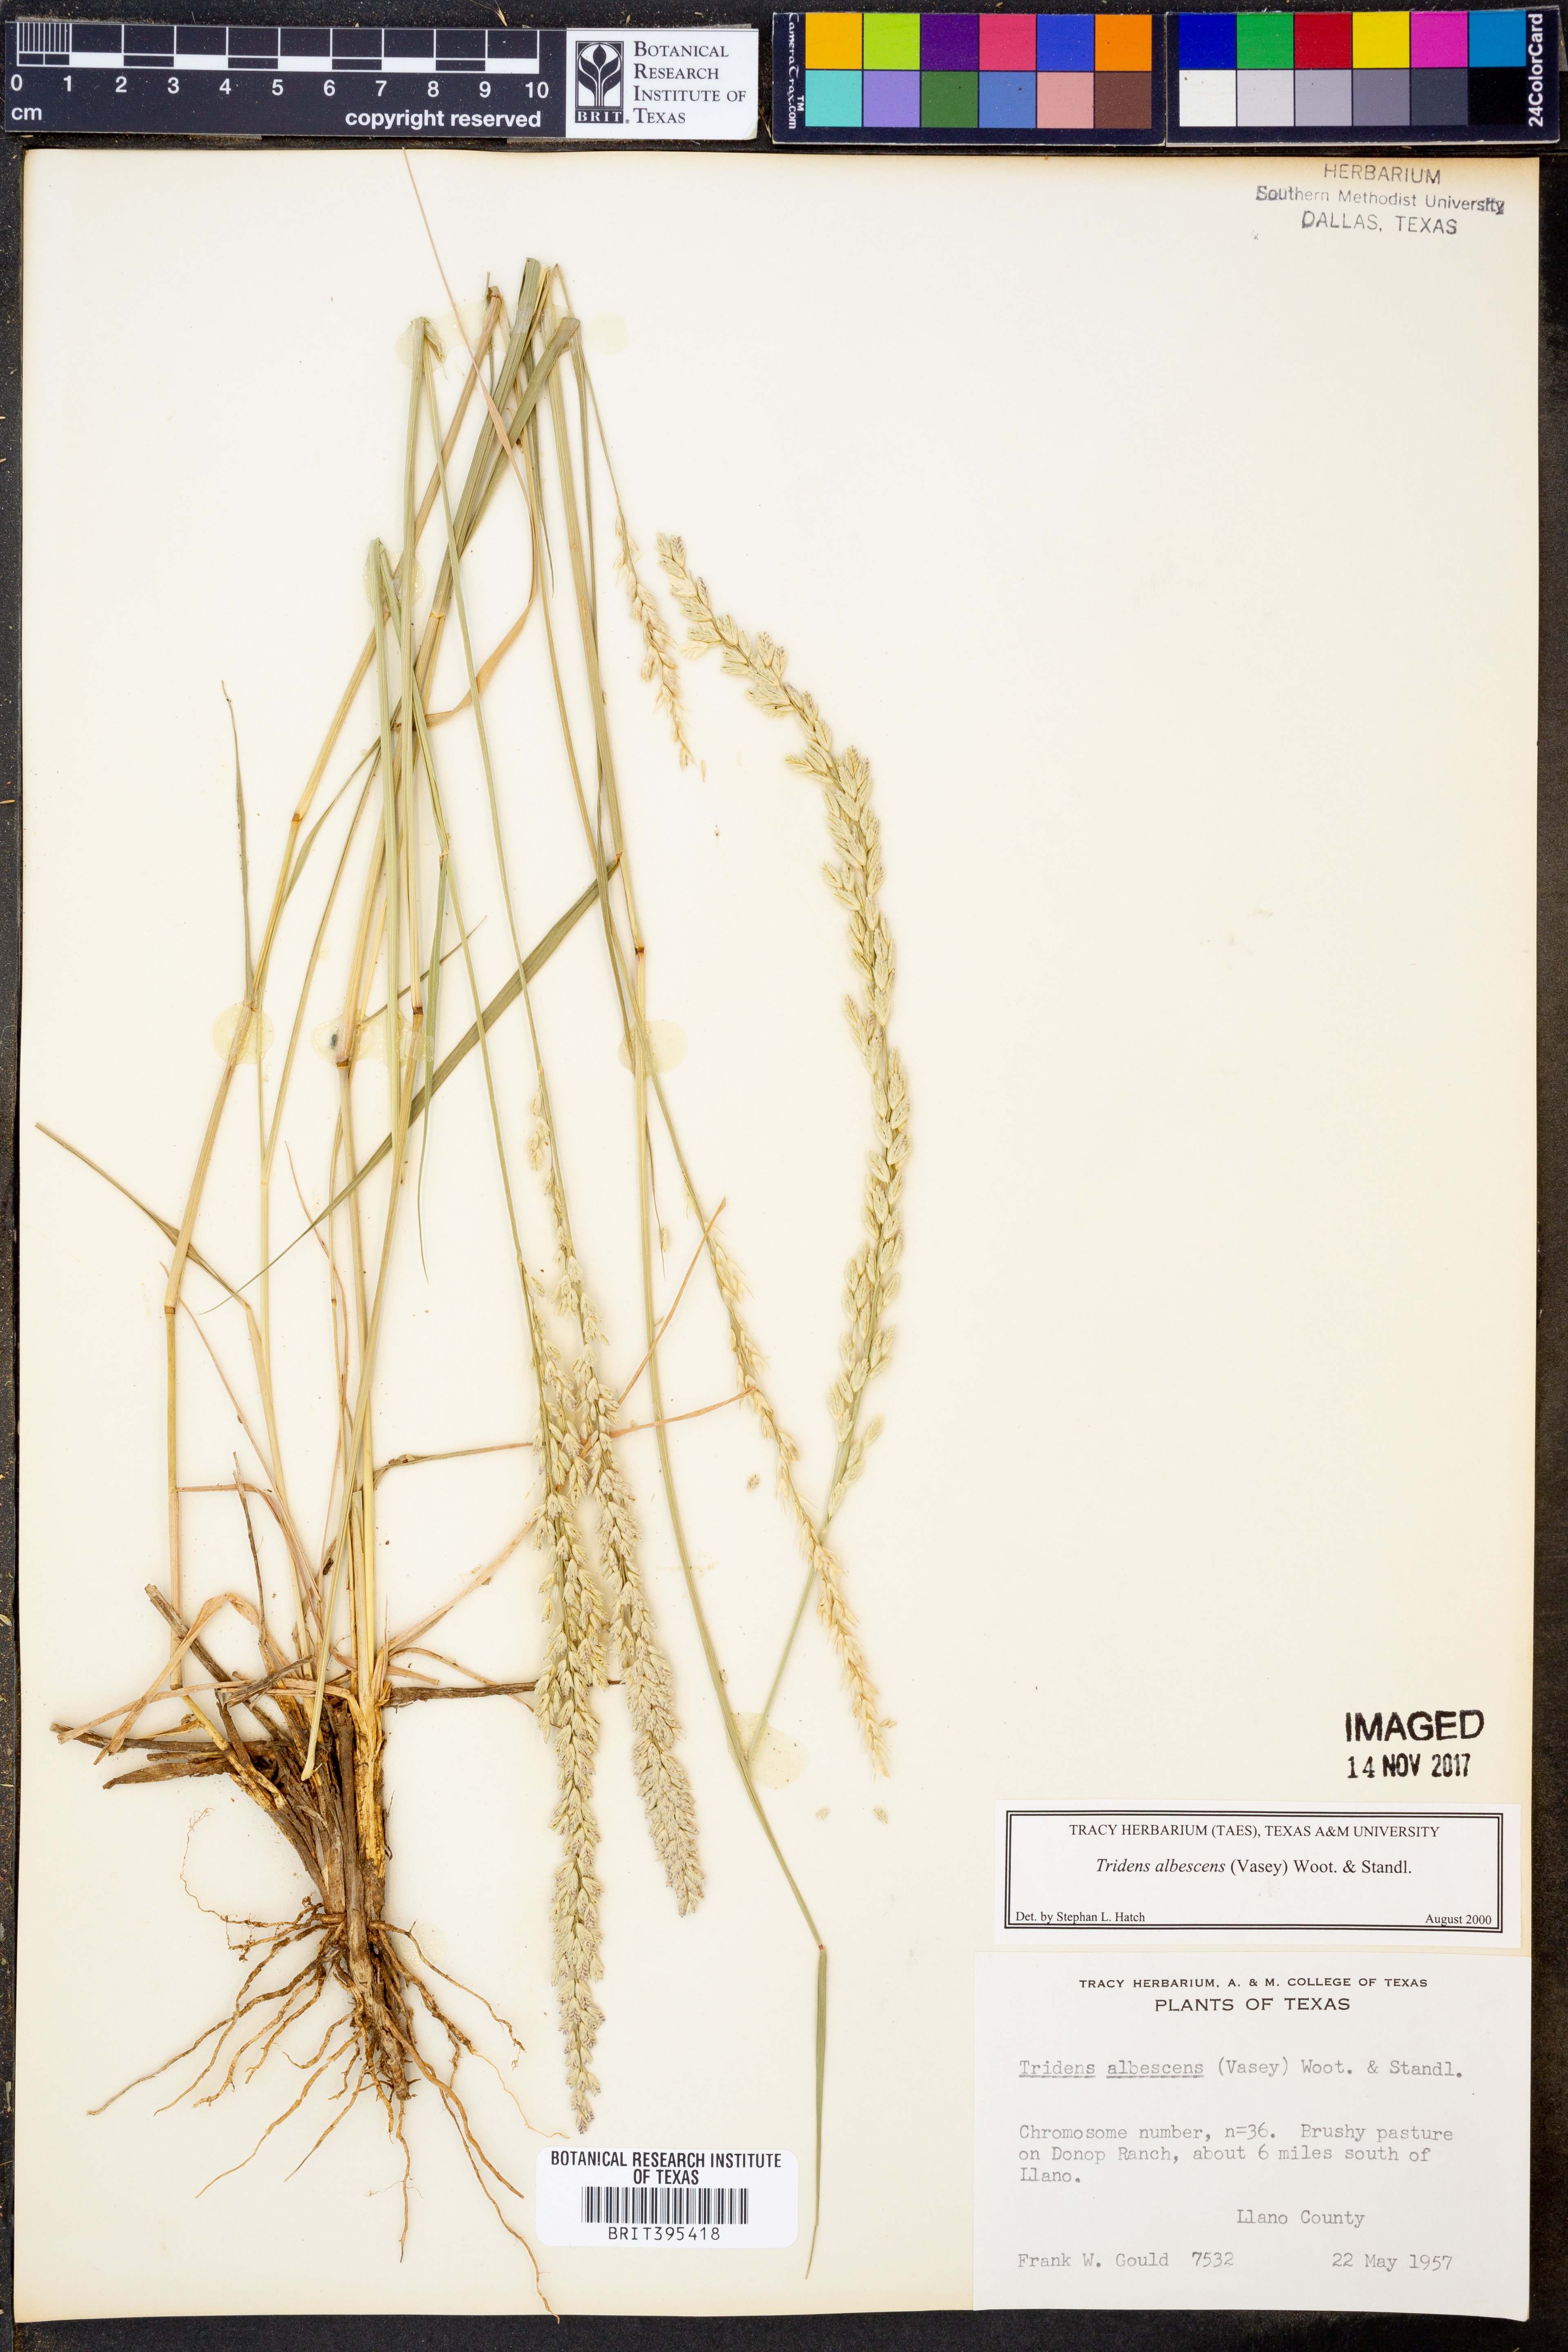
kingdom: Plantae
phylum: Tracheophyta
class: Liliopsida
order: Poales
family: Poaceae
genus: Tridens
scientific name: Tridens albescens
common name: White tridens
